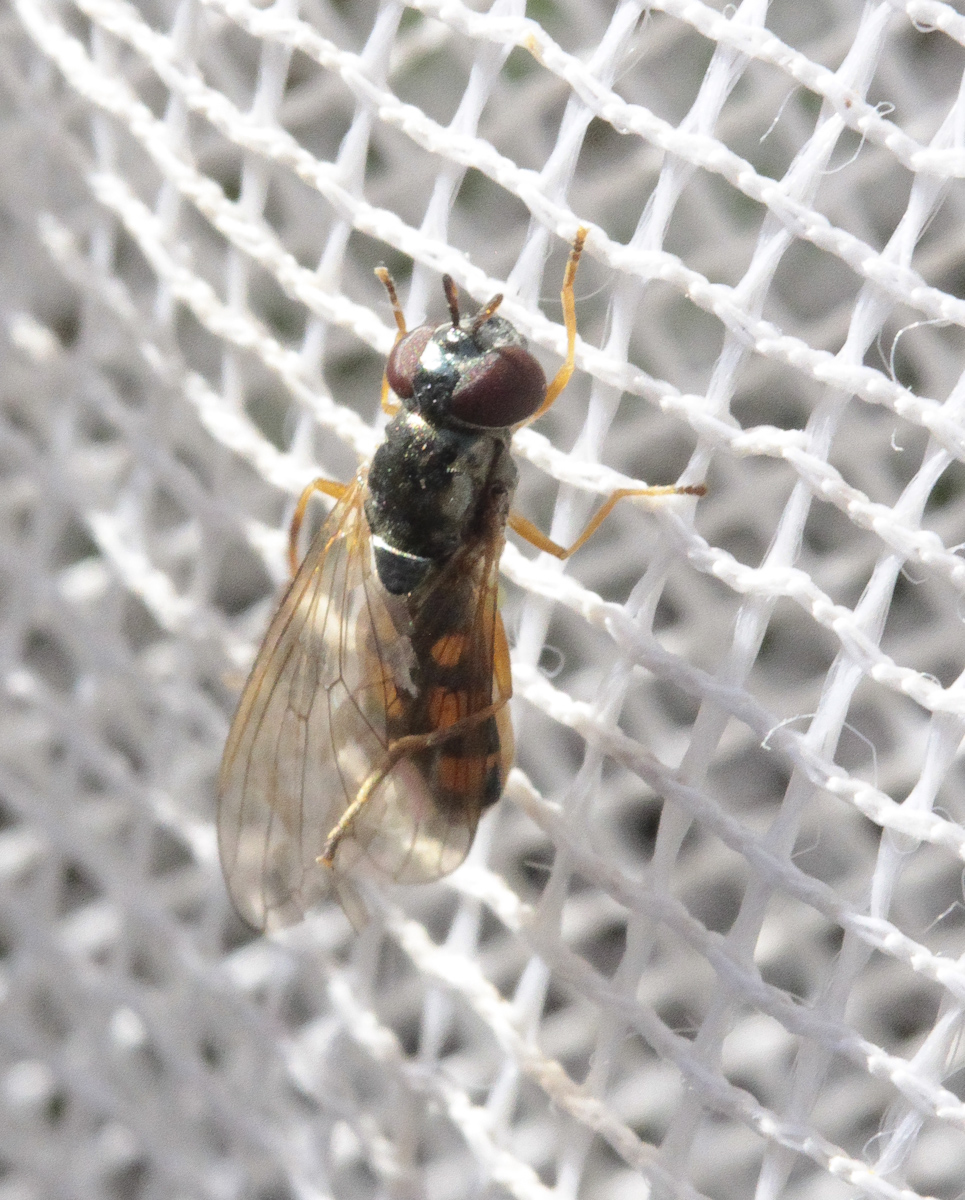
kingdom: Animalia
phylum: Arthropoda
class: Insecta
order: Diptera
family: Syrphidae
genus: Melanostoma
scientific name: Melanostoma
